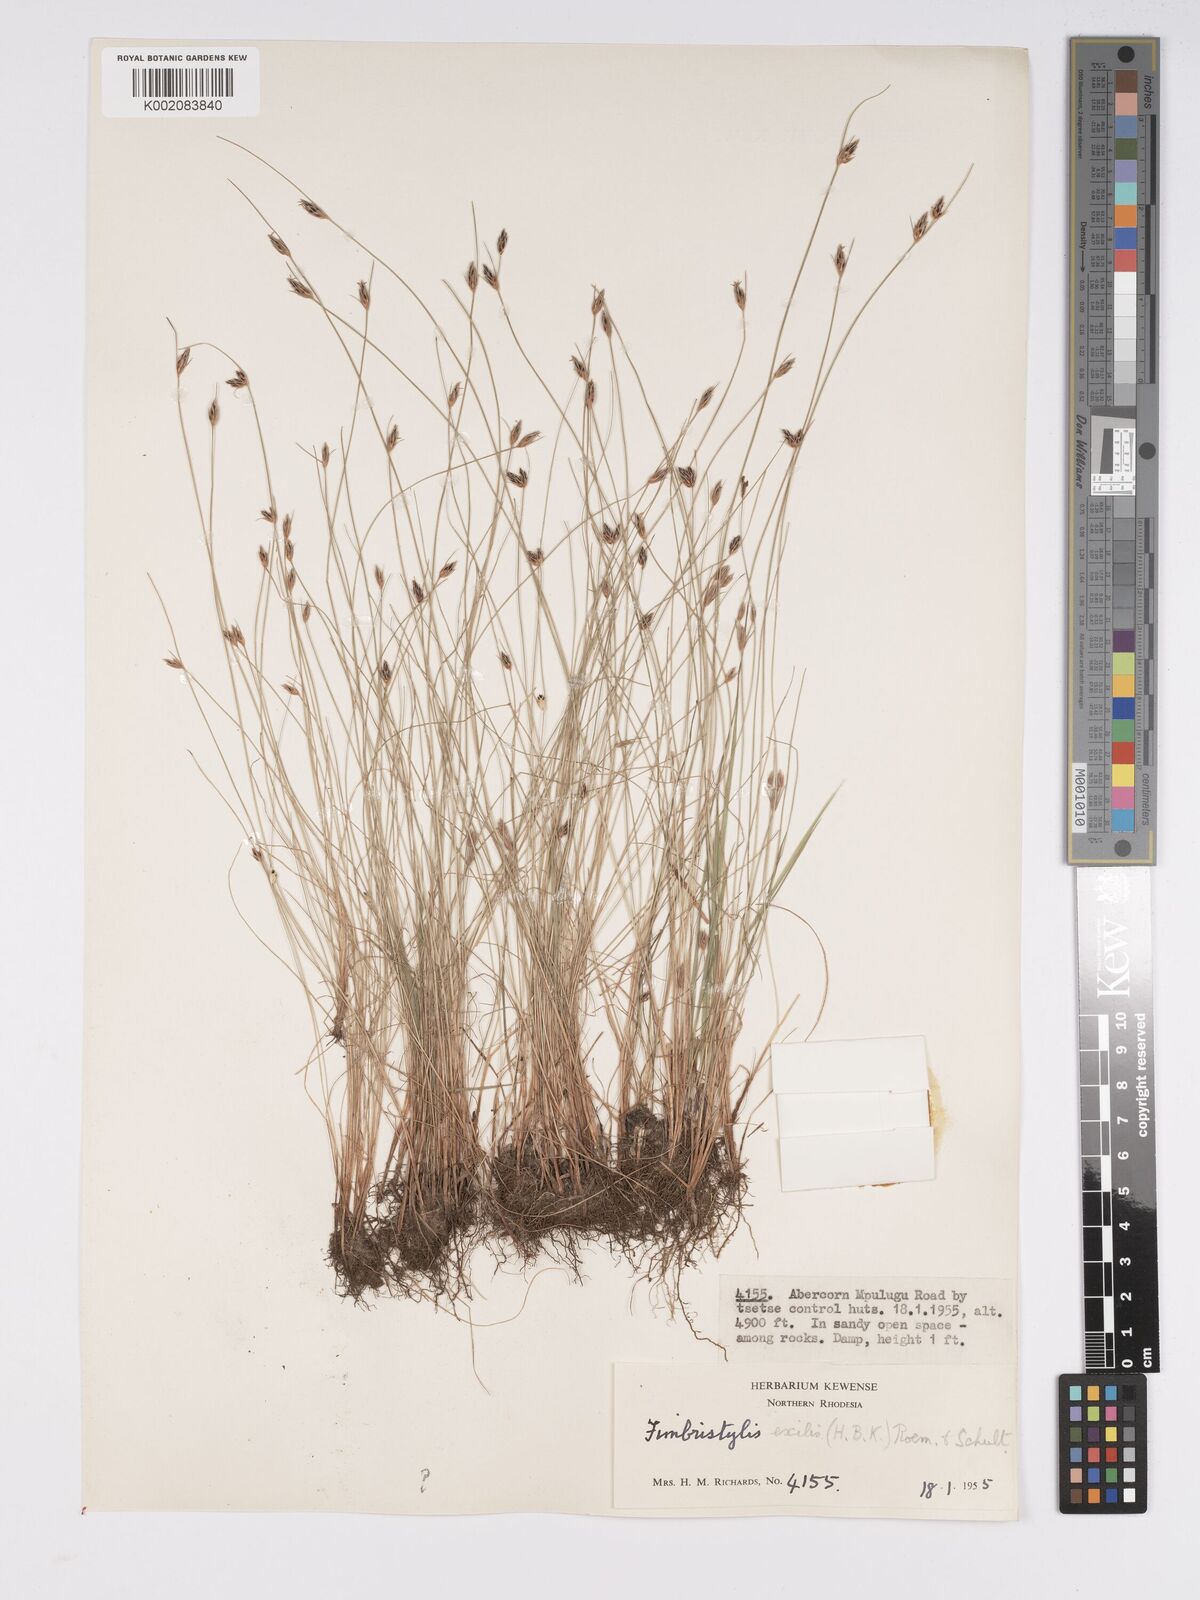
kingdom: Plantae
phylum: Tracheophyta
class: Liliopsida
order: Poales
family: Cyperaceae
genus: Bulbostylis
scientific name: Bulbostylis hispidula
